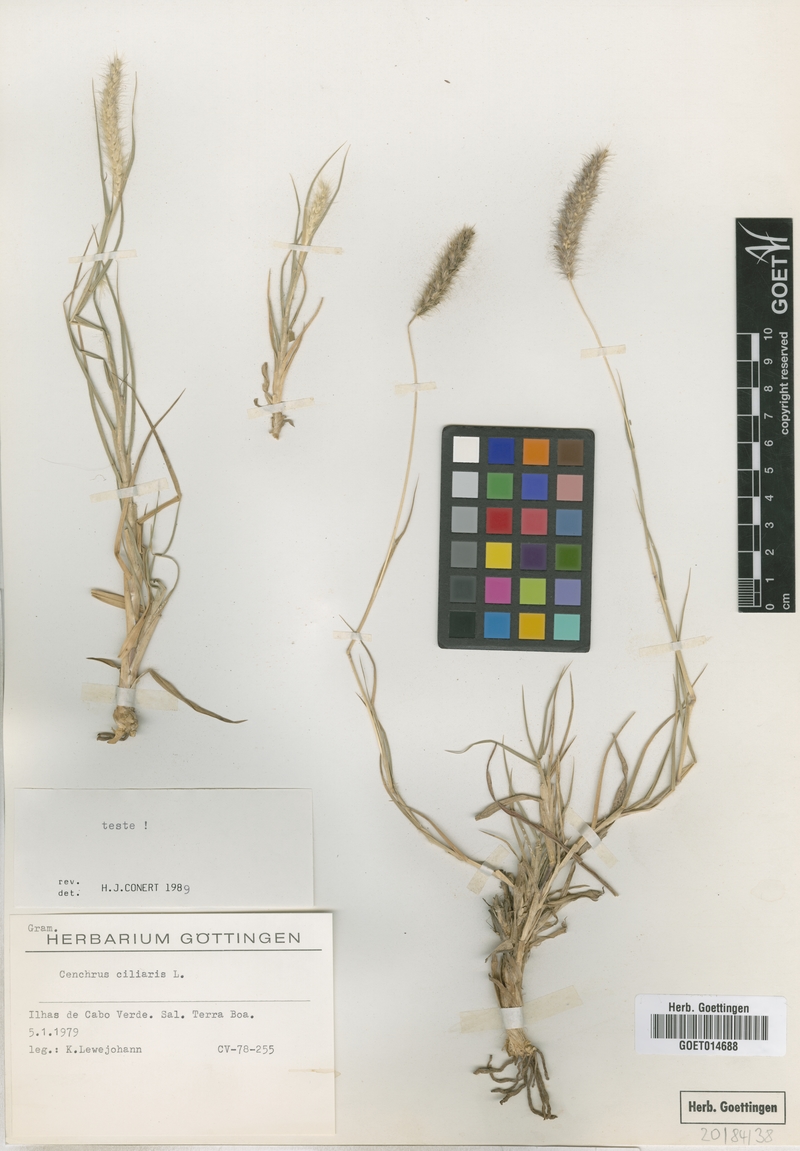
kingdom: Plantae
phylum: Tracheophyta
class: Liliopsida
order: Poales
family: Poaceae
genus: Cenchrus
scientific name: Cenchrus ciliaris
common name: Buffelgrass
